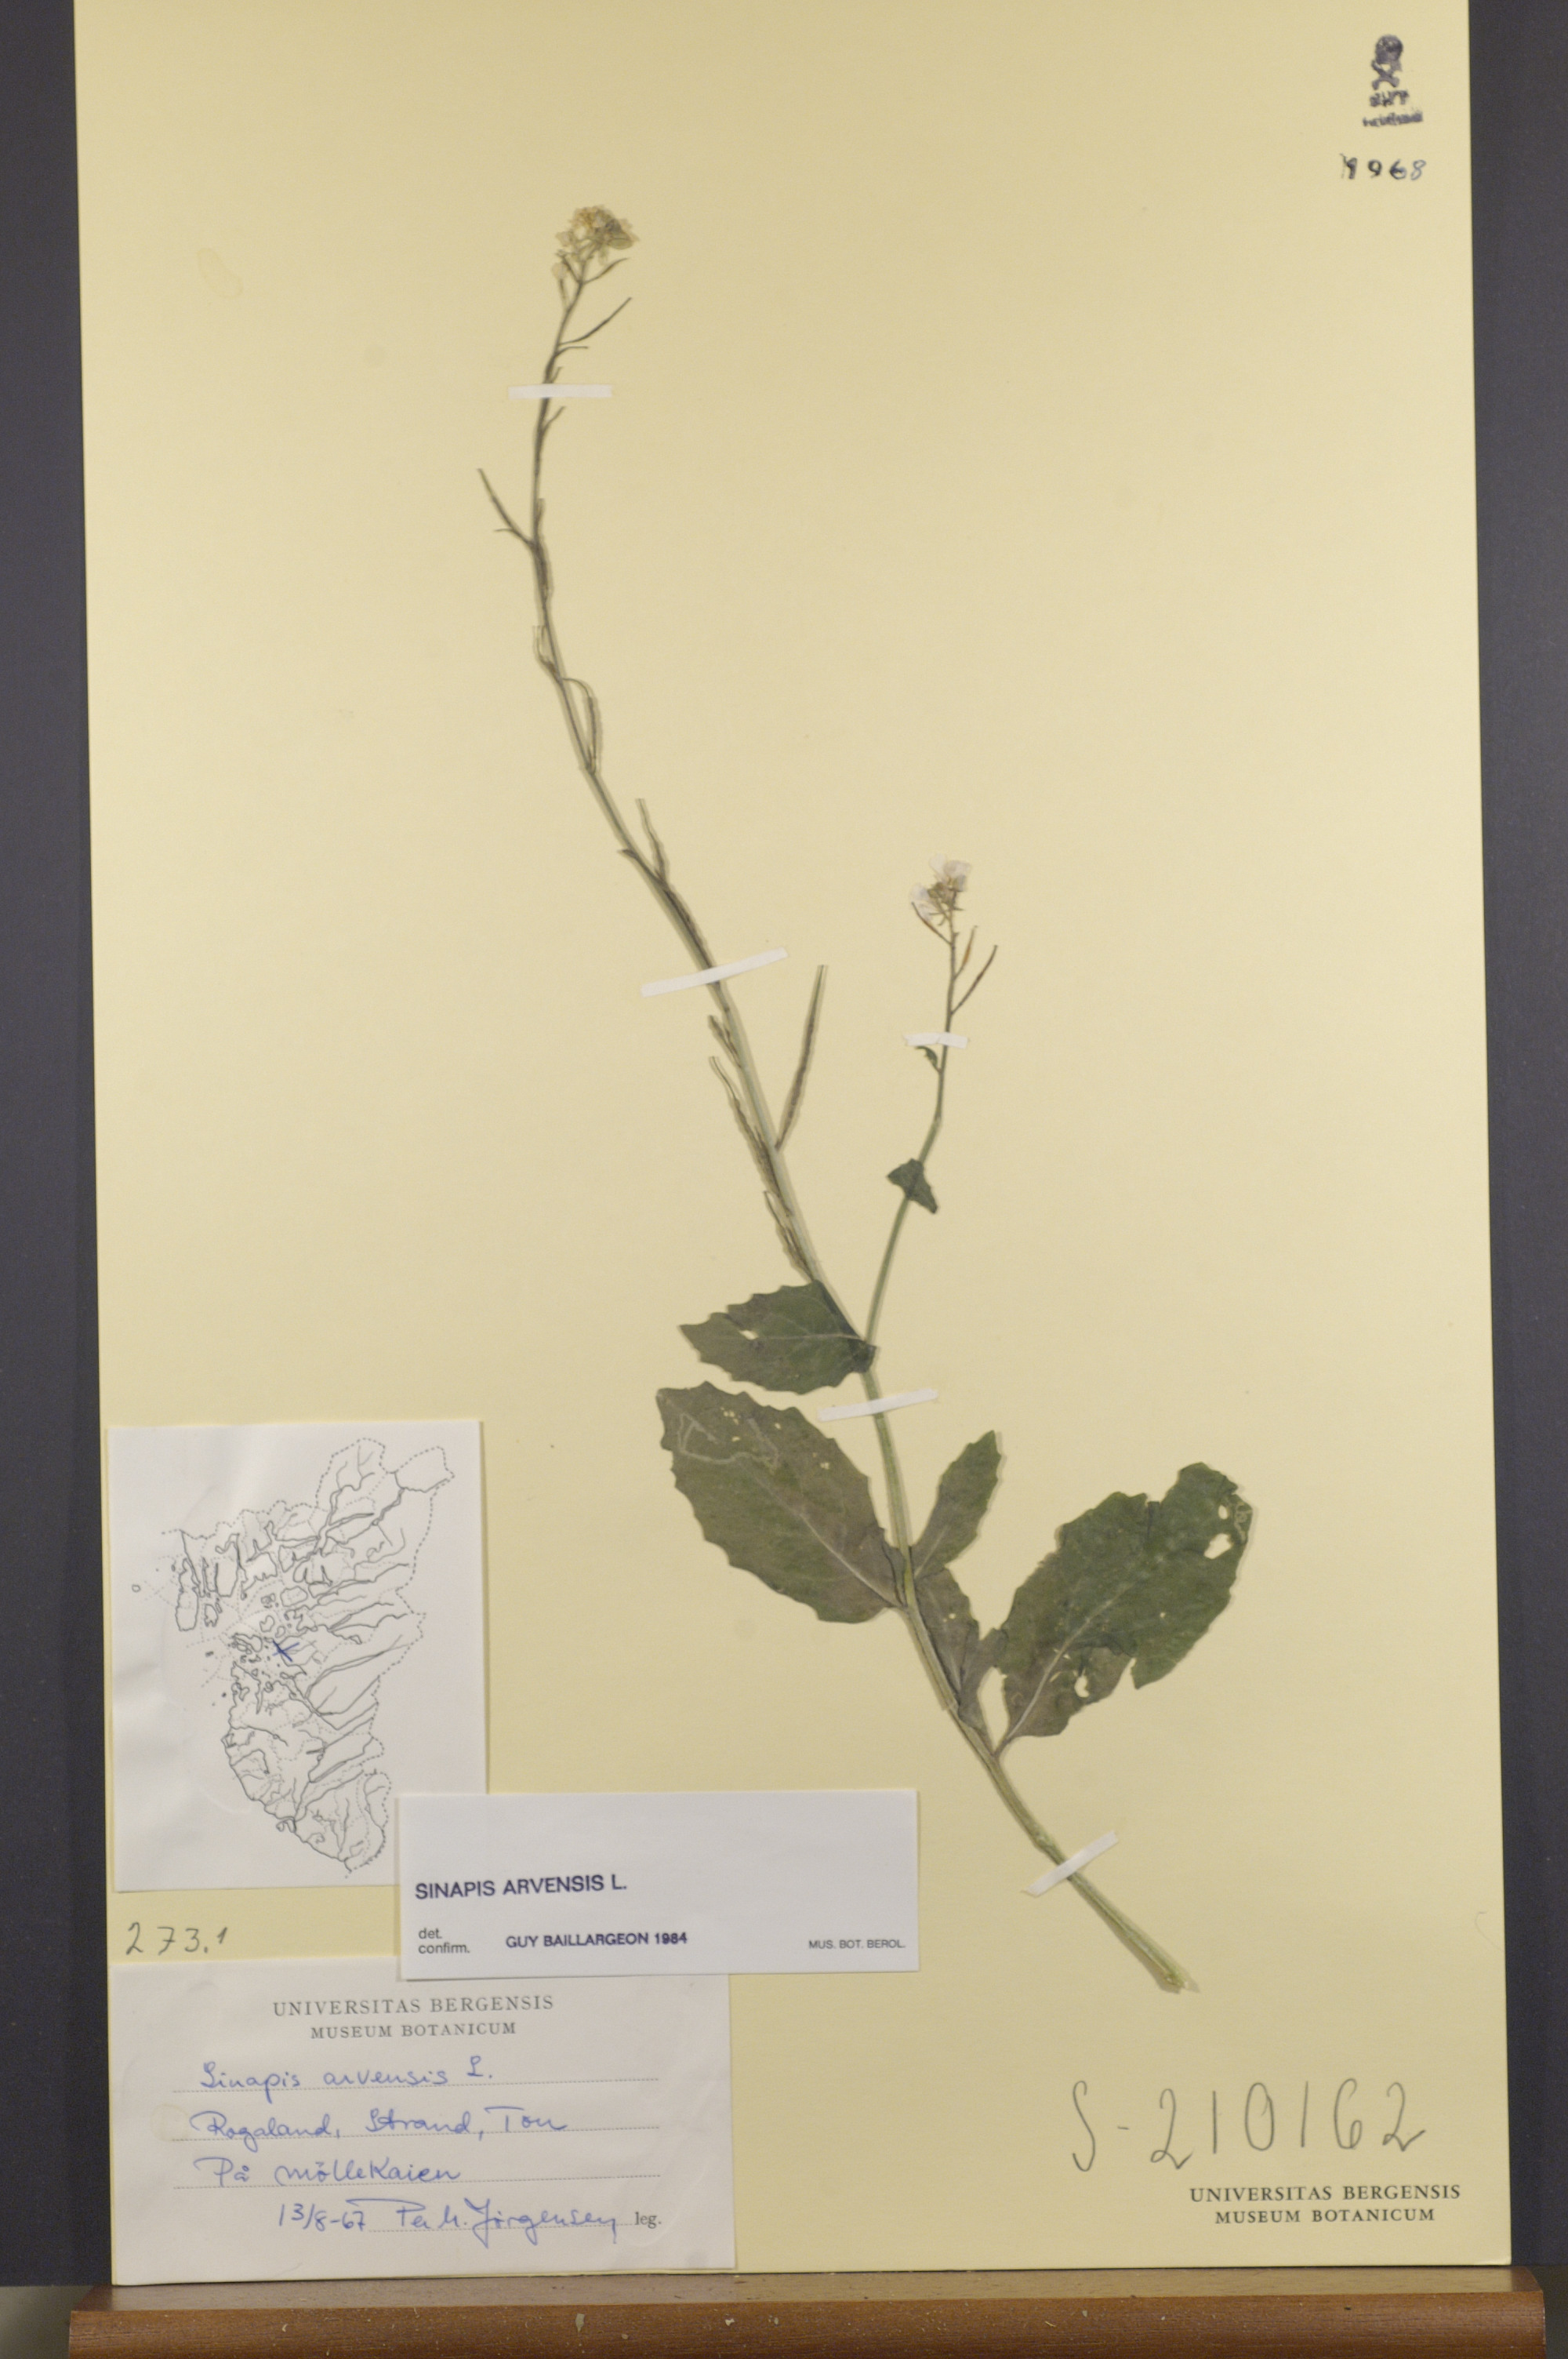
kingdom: Plantae
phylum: Tracheophyta
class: Magnoliopsida
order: Brassicales
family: Brassicaceae
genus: Sinapis
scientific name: Sinapis arvensis
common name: Charlock
